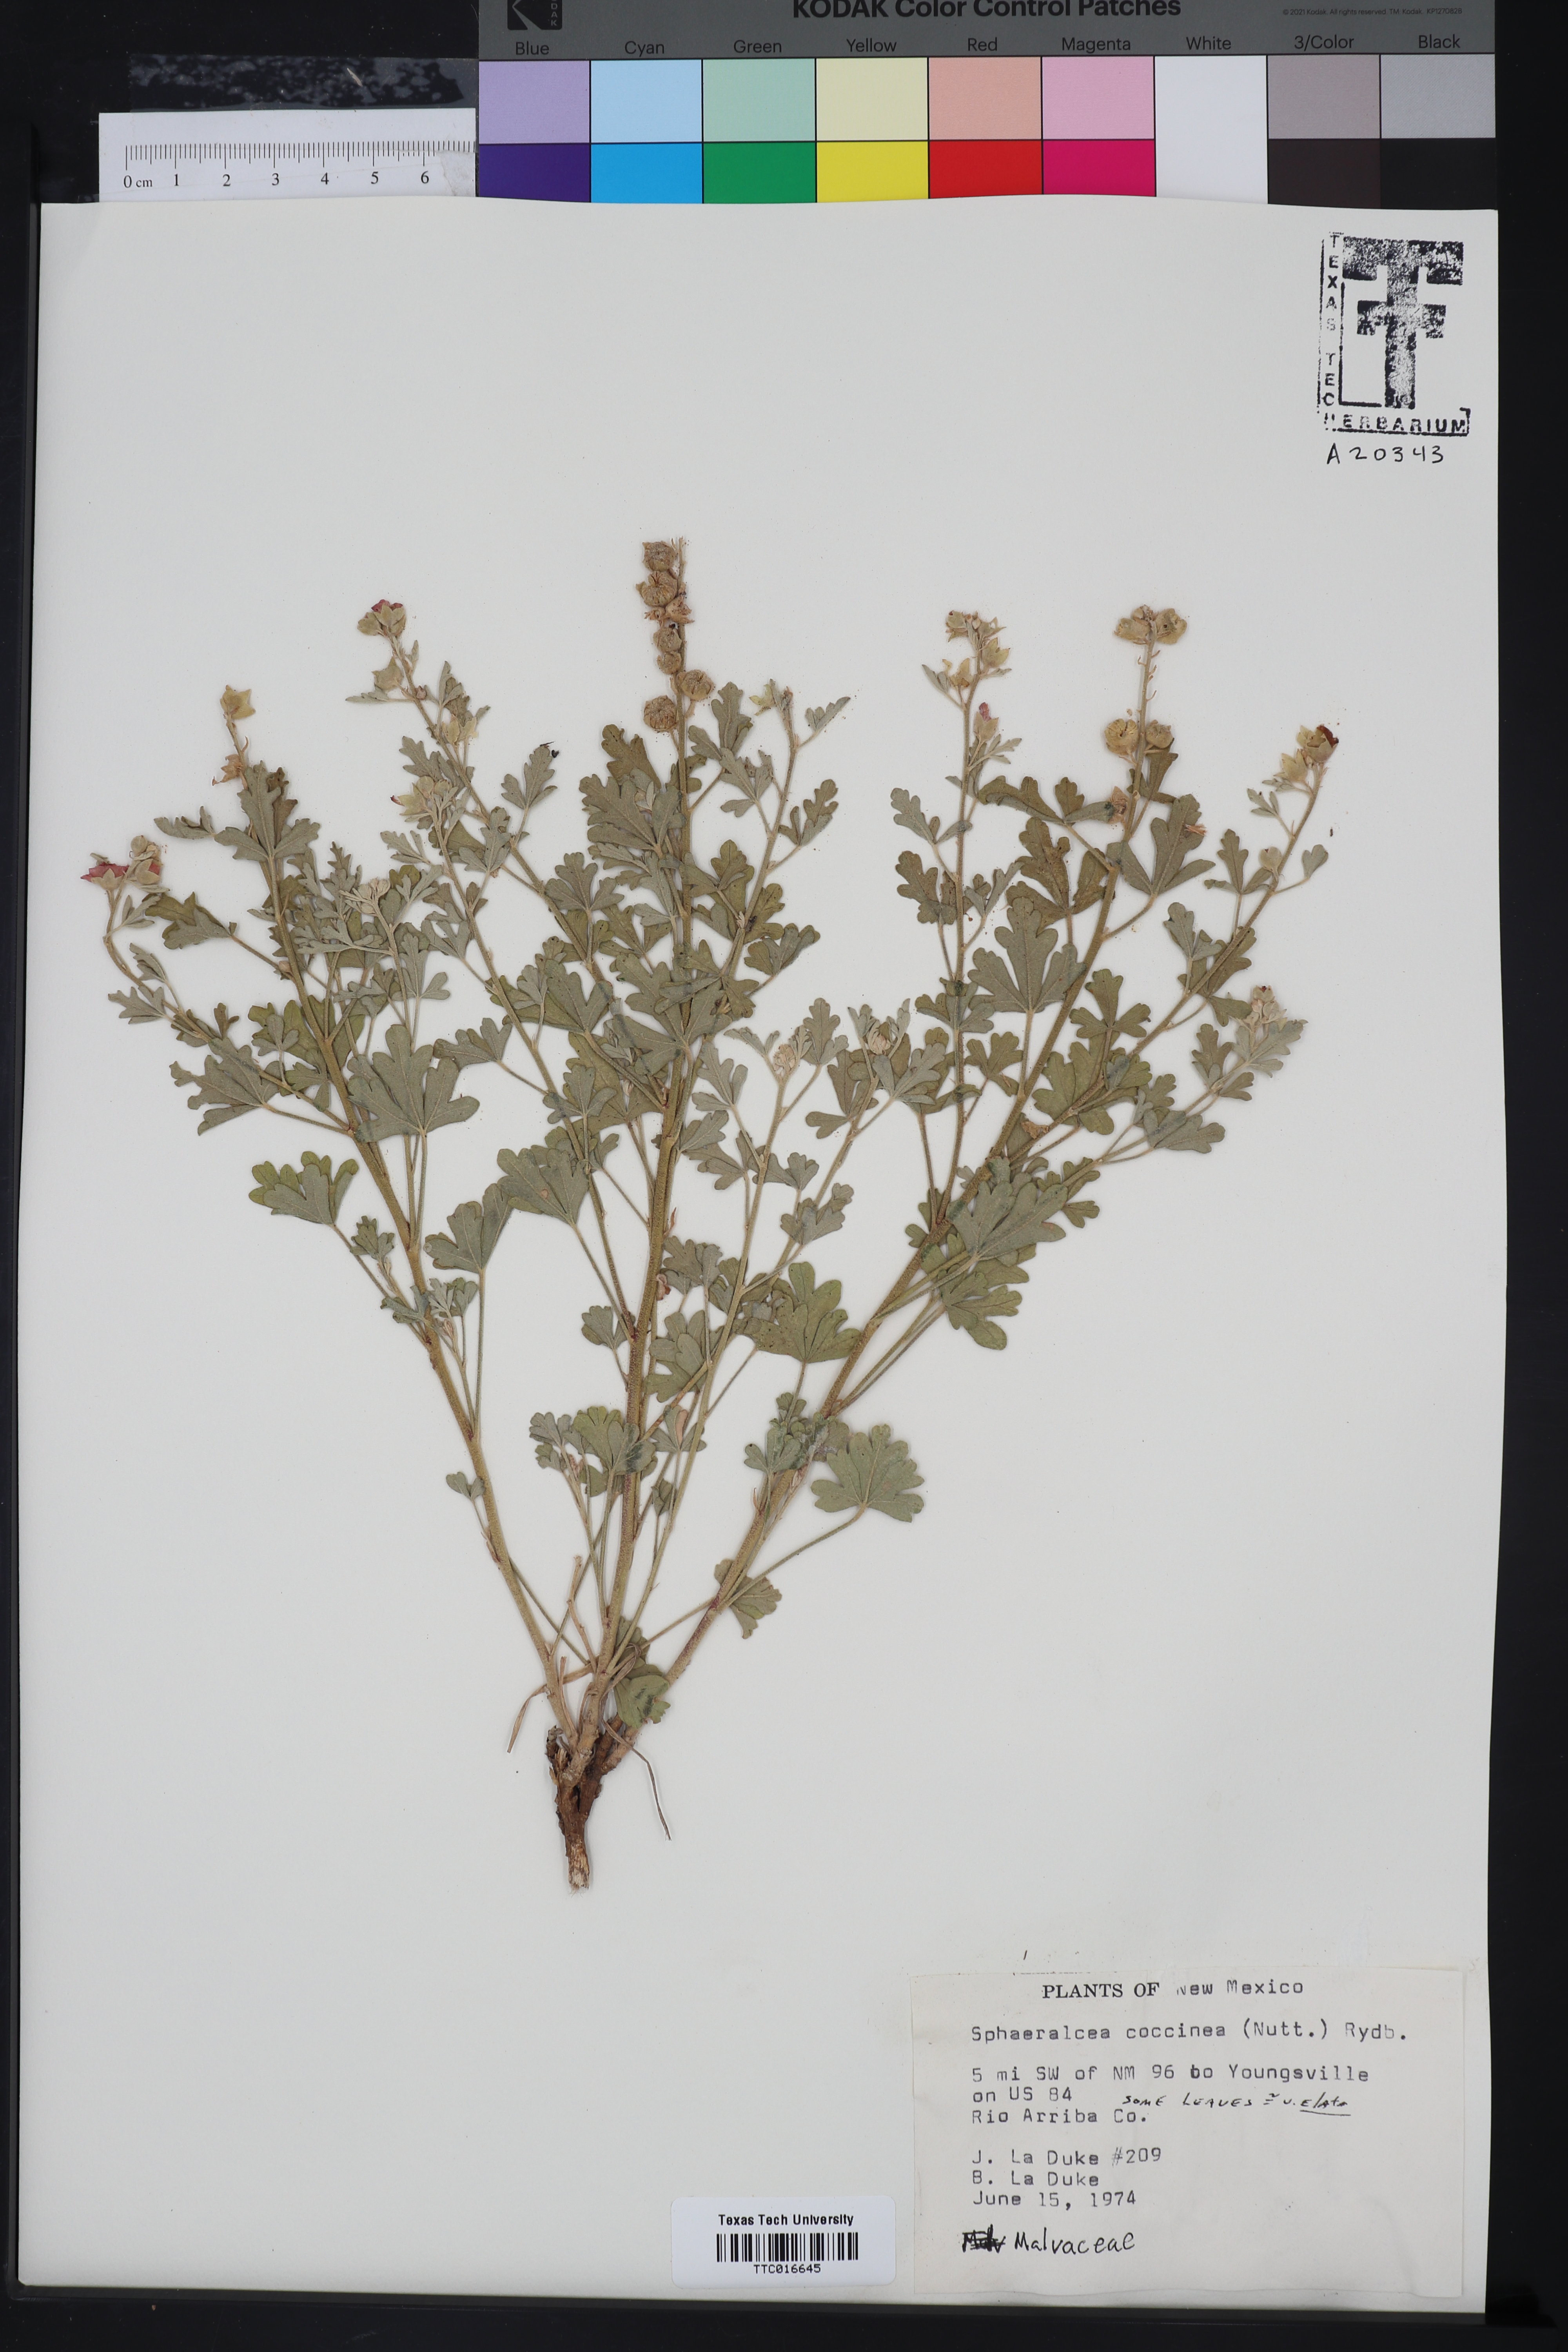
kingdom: Plantae
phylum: Tracheophyta
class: Magnoliopsida
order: Malvales
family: Malvaceae
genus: Sphaeralcea
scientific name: Sphaeralcea coccinea
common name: Moss-rose
